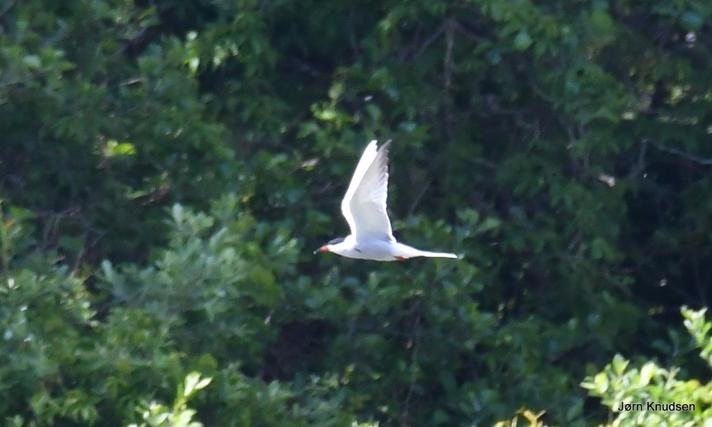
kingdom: Animalia
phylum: Chordata
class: Aves
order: Charadriiformes
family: Laridae
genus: Sterna
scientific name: Sterna hirundo
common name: Fjordterne
